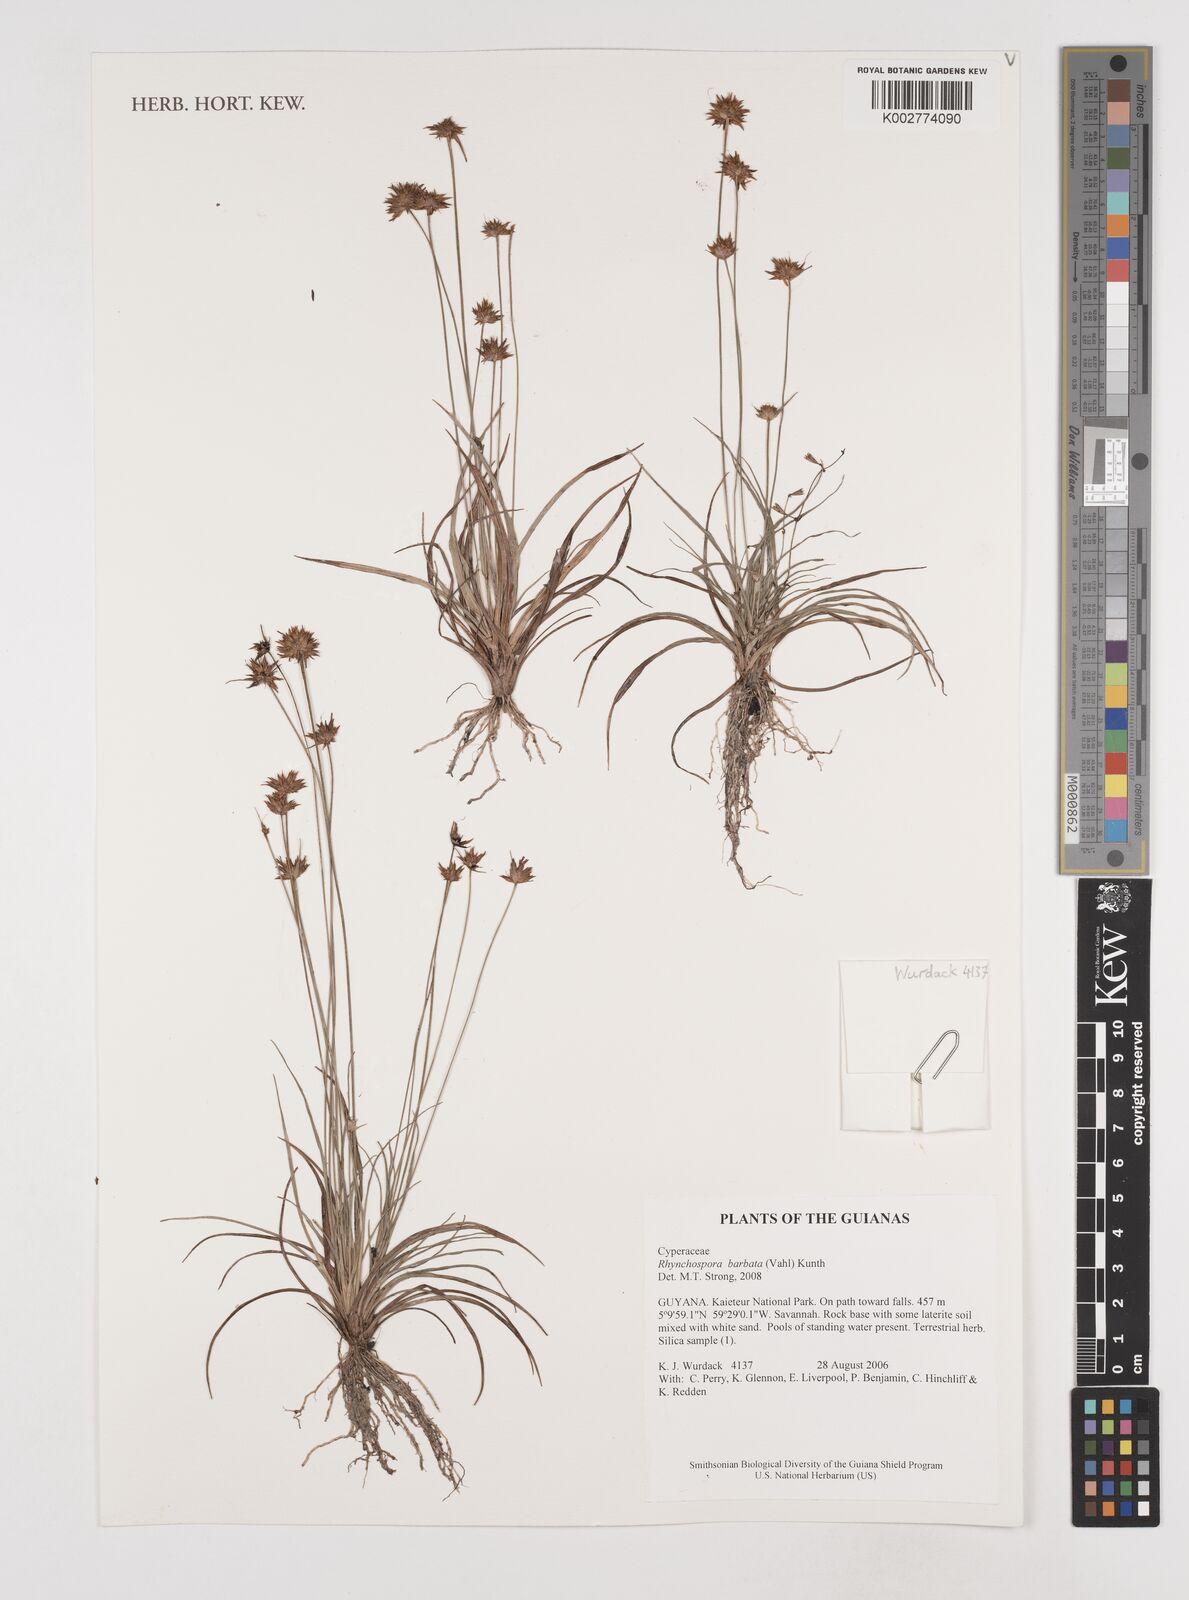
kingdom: Plantae
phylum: Tracheophyta
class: Liliopsida
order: Poales
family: Cyperaceae
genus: Rhynchospora
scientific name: Rhynchospora barbata
